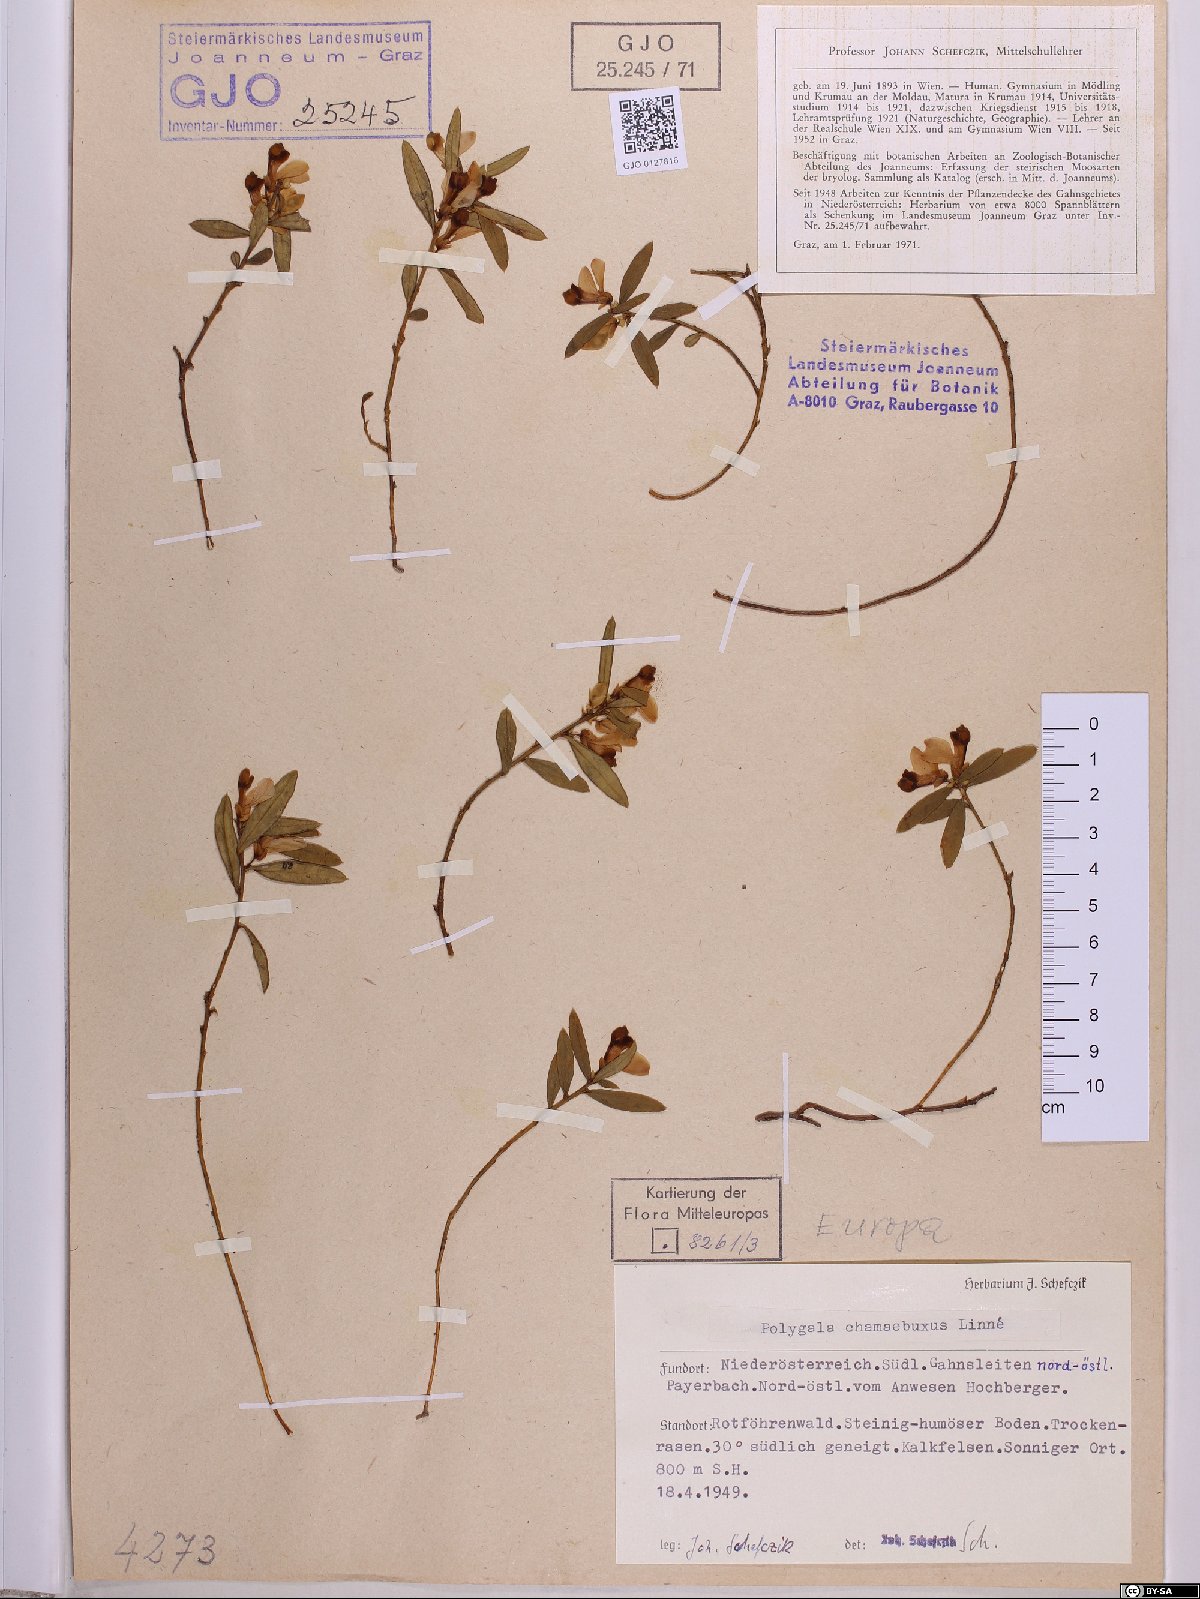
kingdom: Plantae
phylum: Tracheophyta
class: Magnoliopsida
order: Fabales
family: Polygalaceae
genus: Polygaloides
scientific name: Polygaloides chamaebuxus
